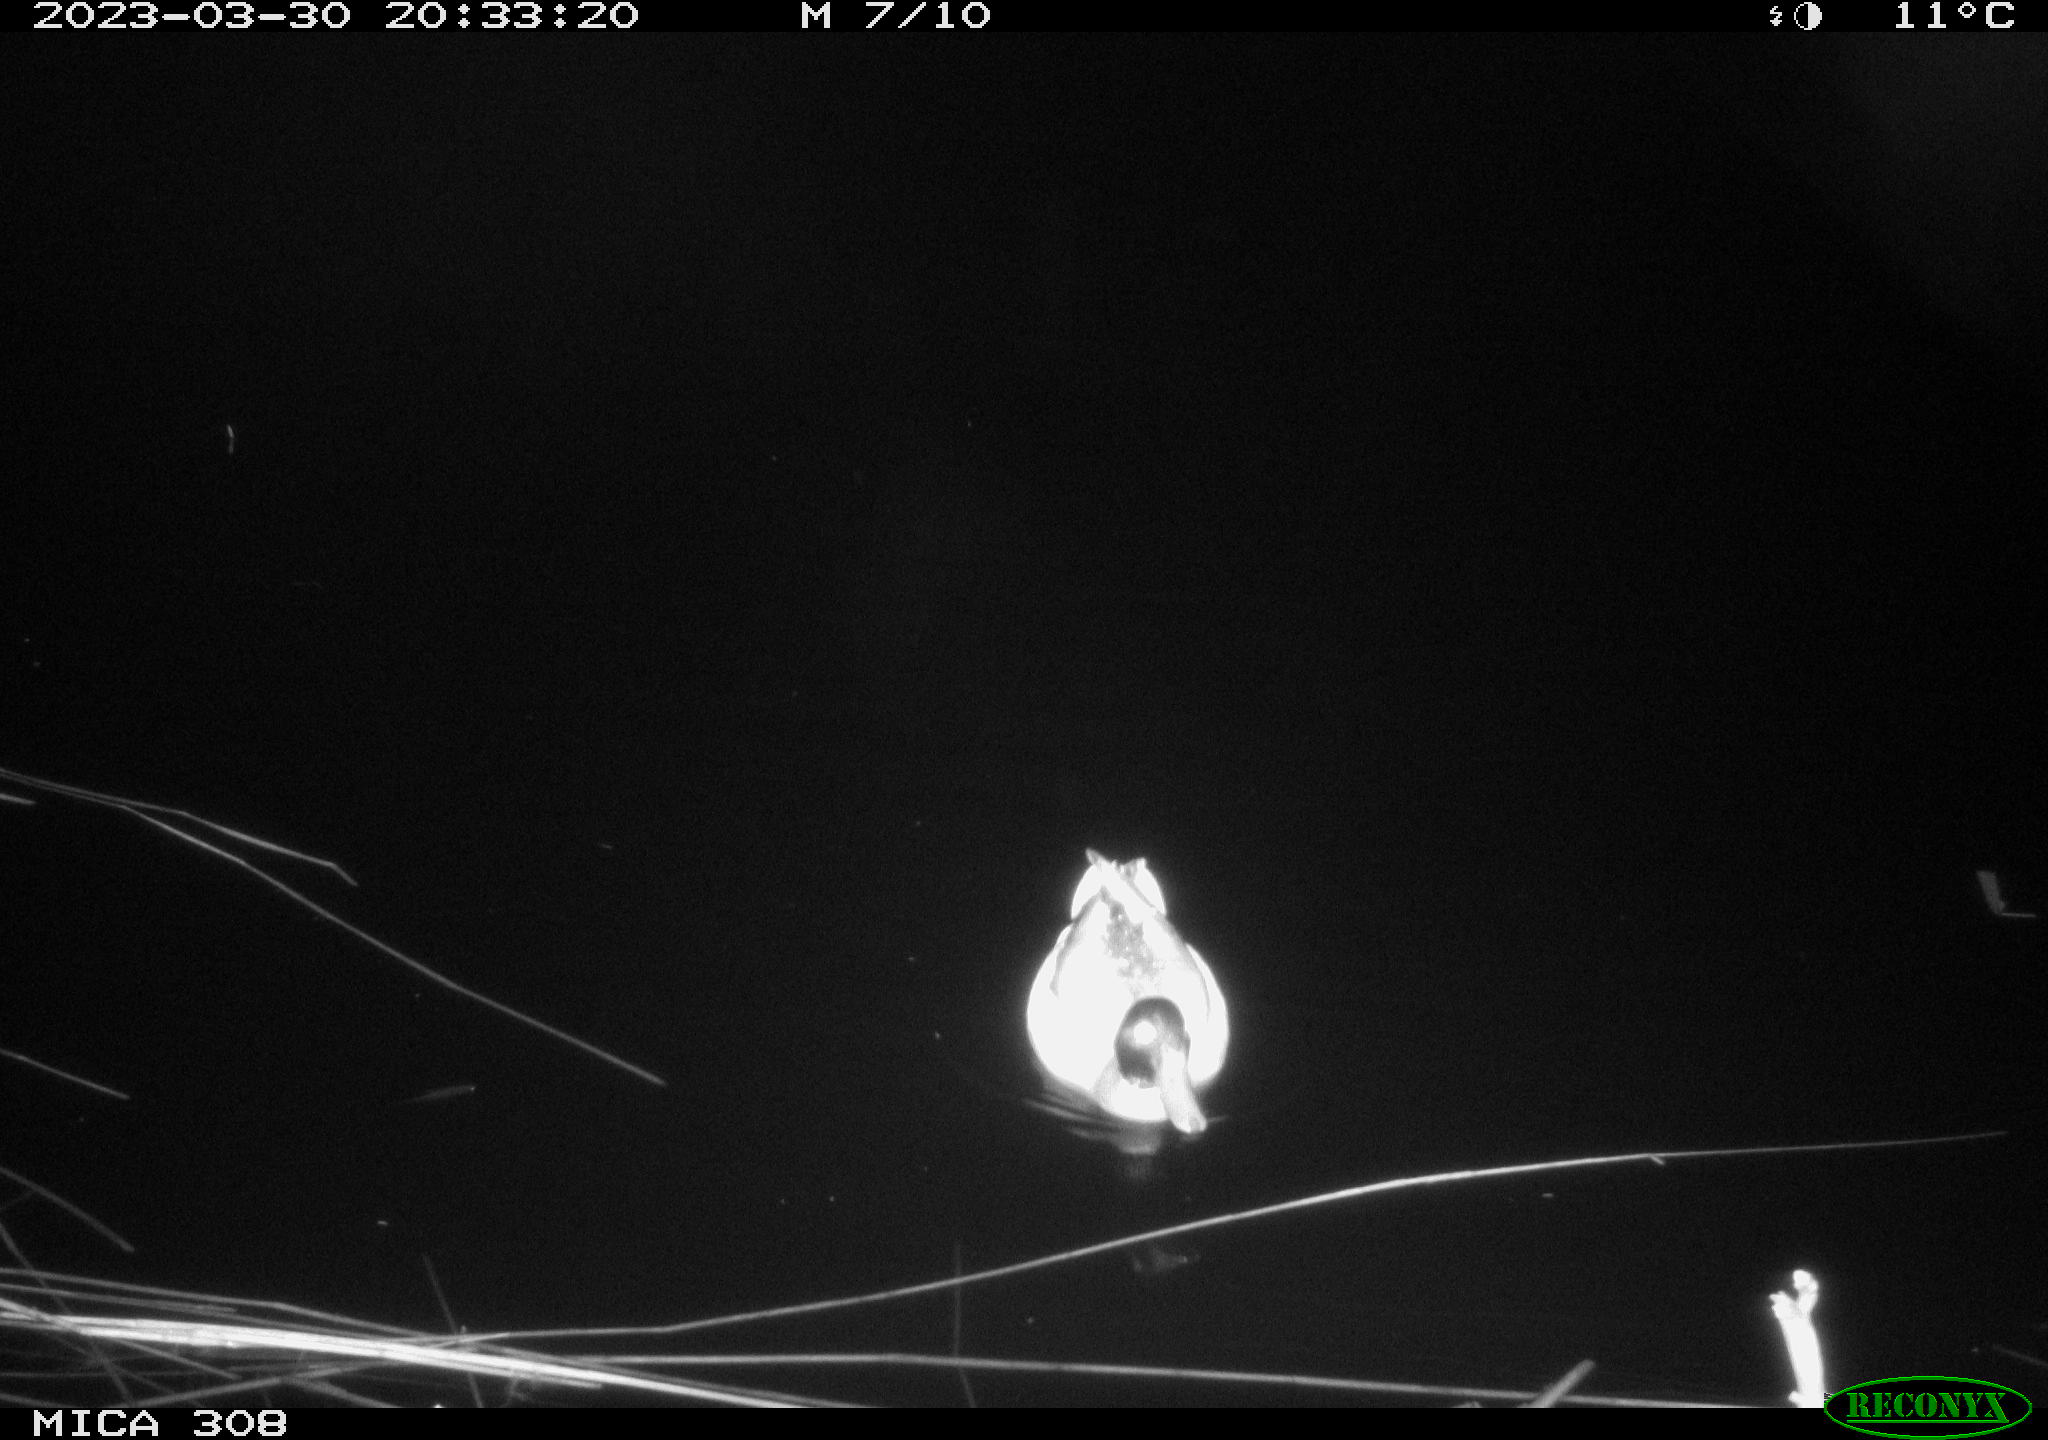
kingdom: Animalia
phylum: Chordata
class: Aves
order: Anseriformes
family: Anatidae
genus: Anas
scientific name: Anas
